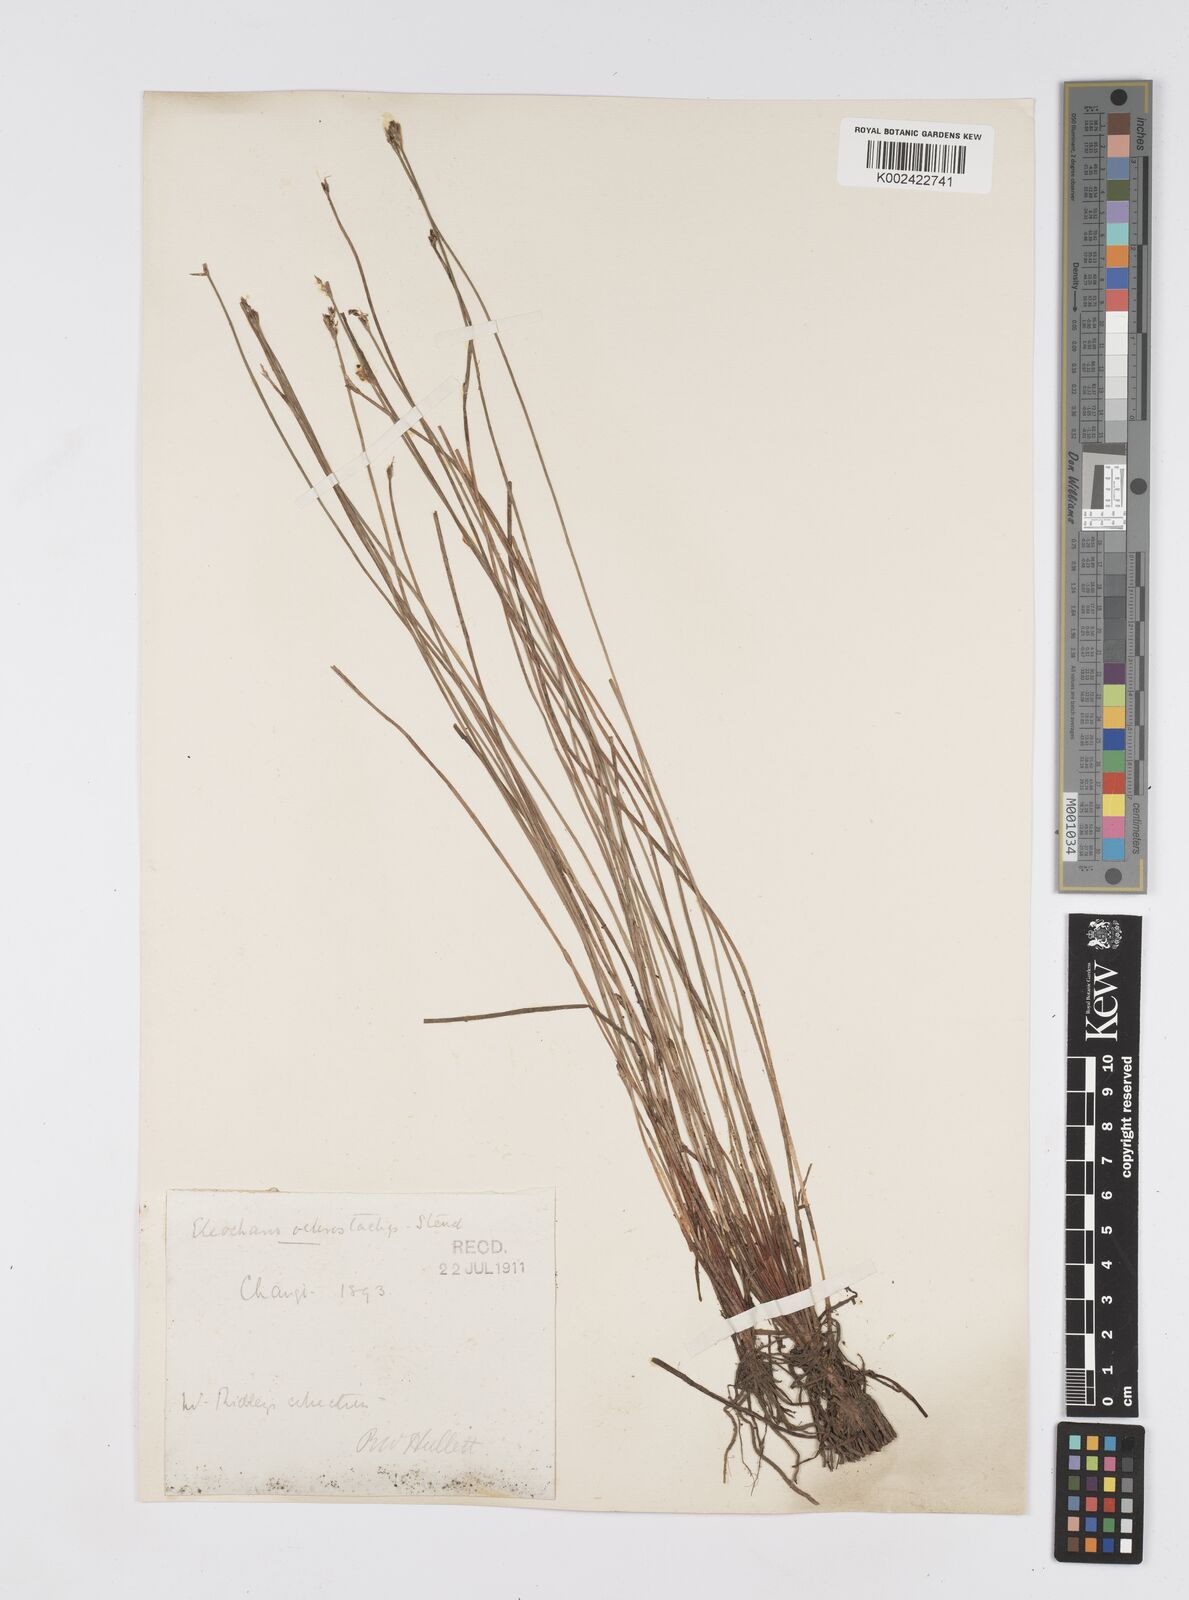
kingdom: Plantae
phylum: Tracheophyta
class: Liliopsida
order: Poales
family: Cyperaceae
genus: Eleocharis
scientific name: Eleocharis ochrostachys
